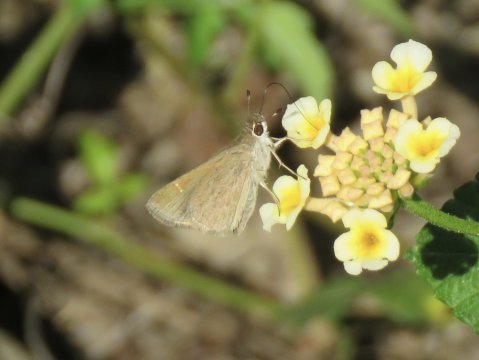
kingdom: Animalia
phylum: Arthropoda
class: Insecta
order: Lepidoptera
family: Hesperiidae
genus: Lerodea
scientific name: Lerodea eufala
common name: Eufala Skipper
